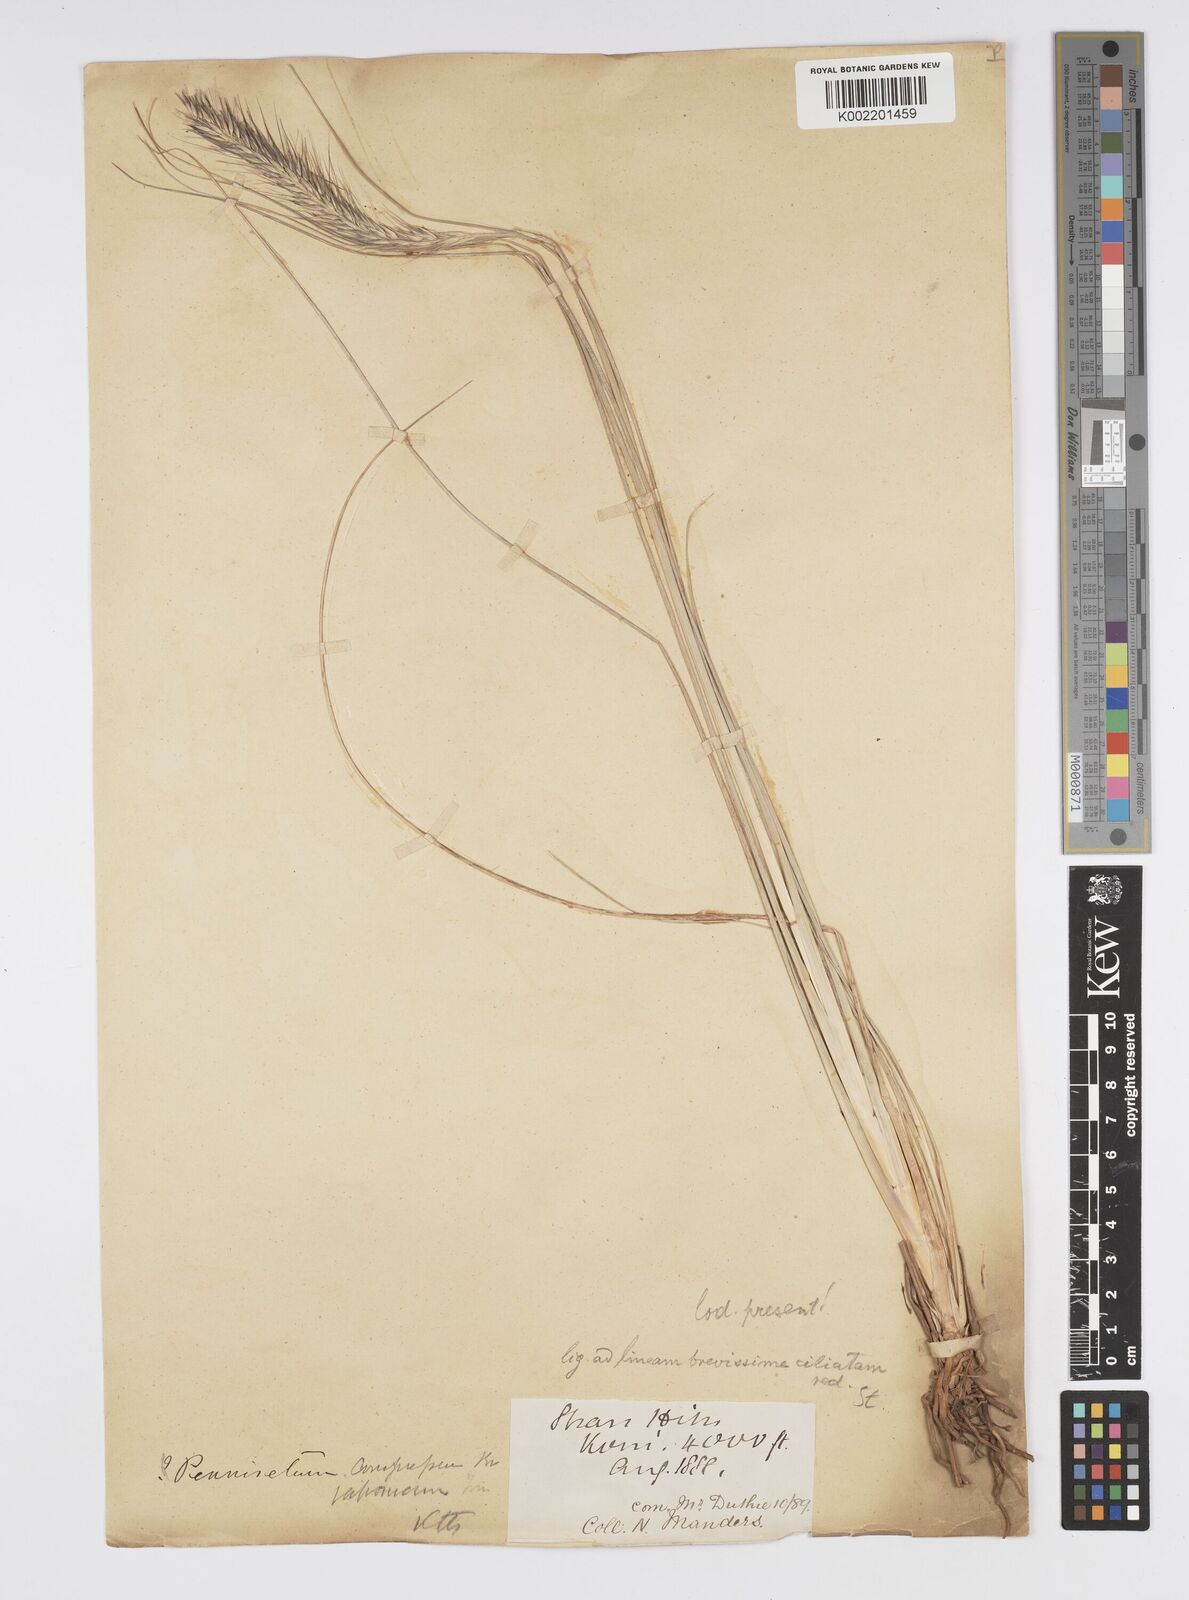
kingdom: Plantae
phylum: Tracheophyta
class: Liliopsida
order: Poales
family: Poaceae
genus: Cenchrus
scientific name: Cenchrus alopecuroides
